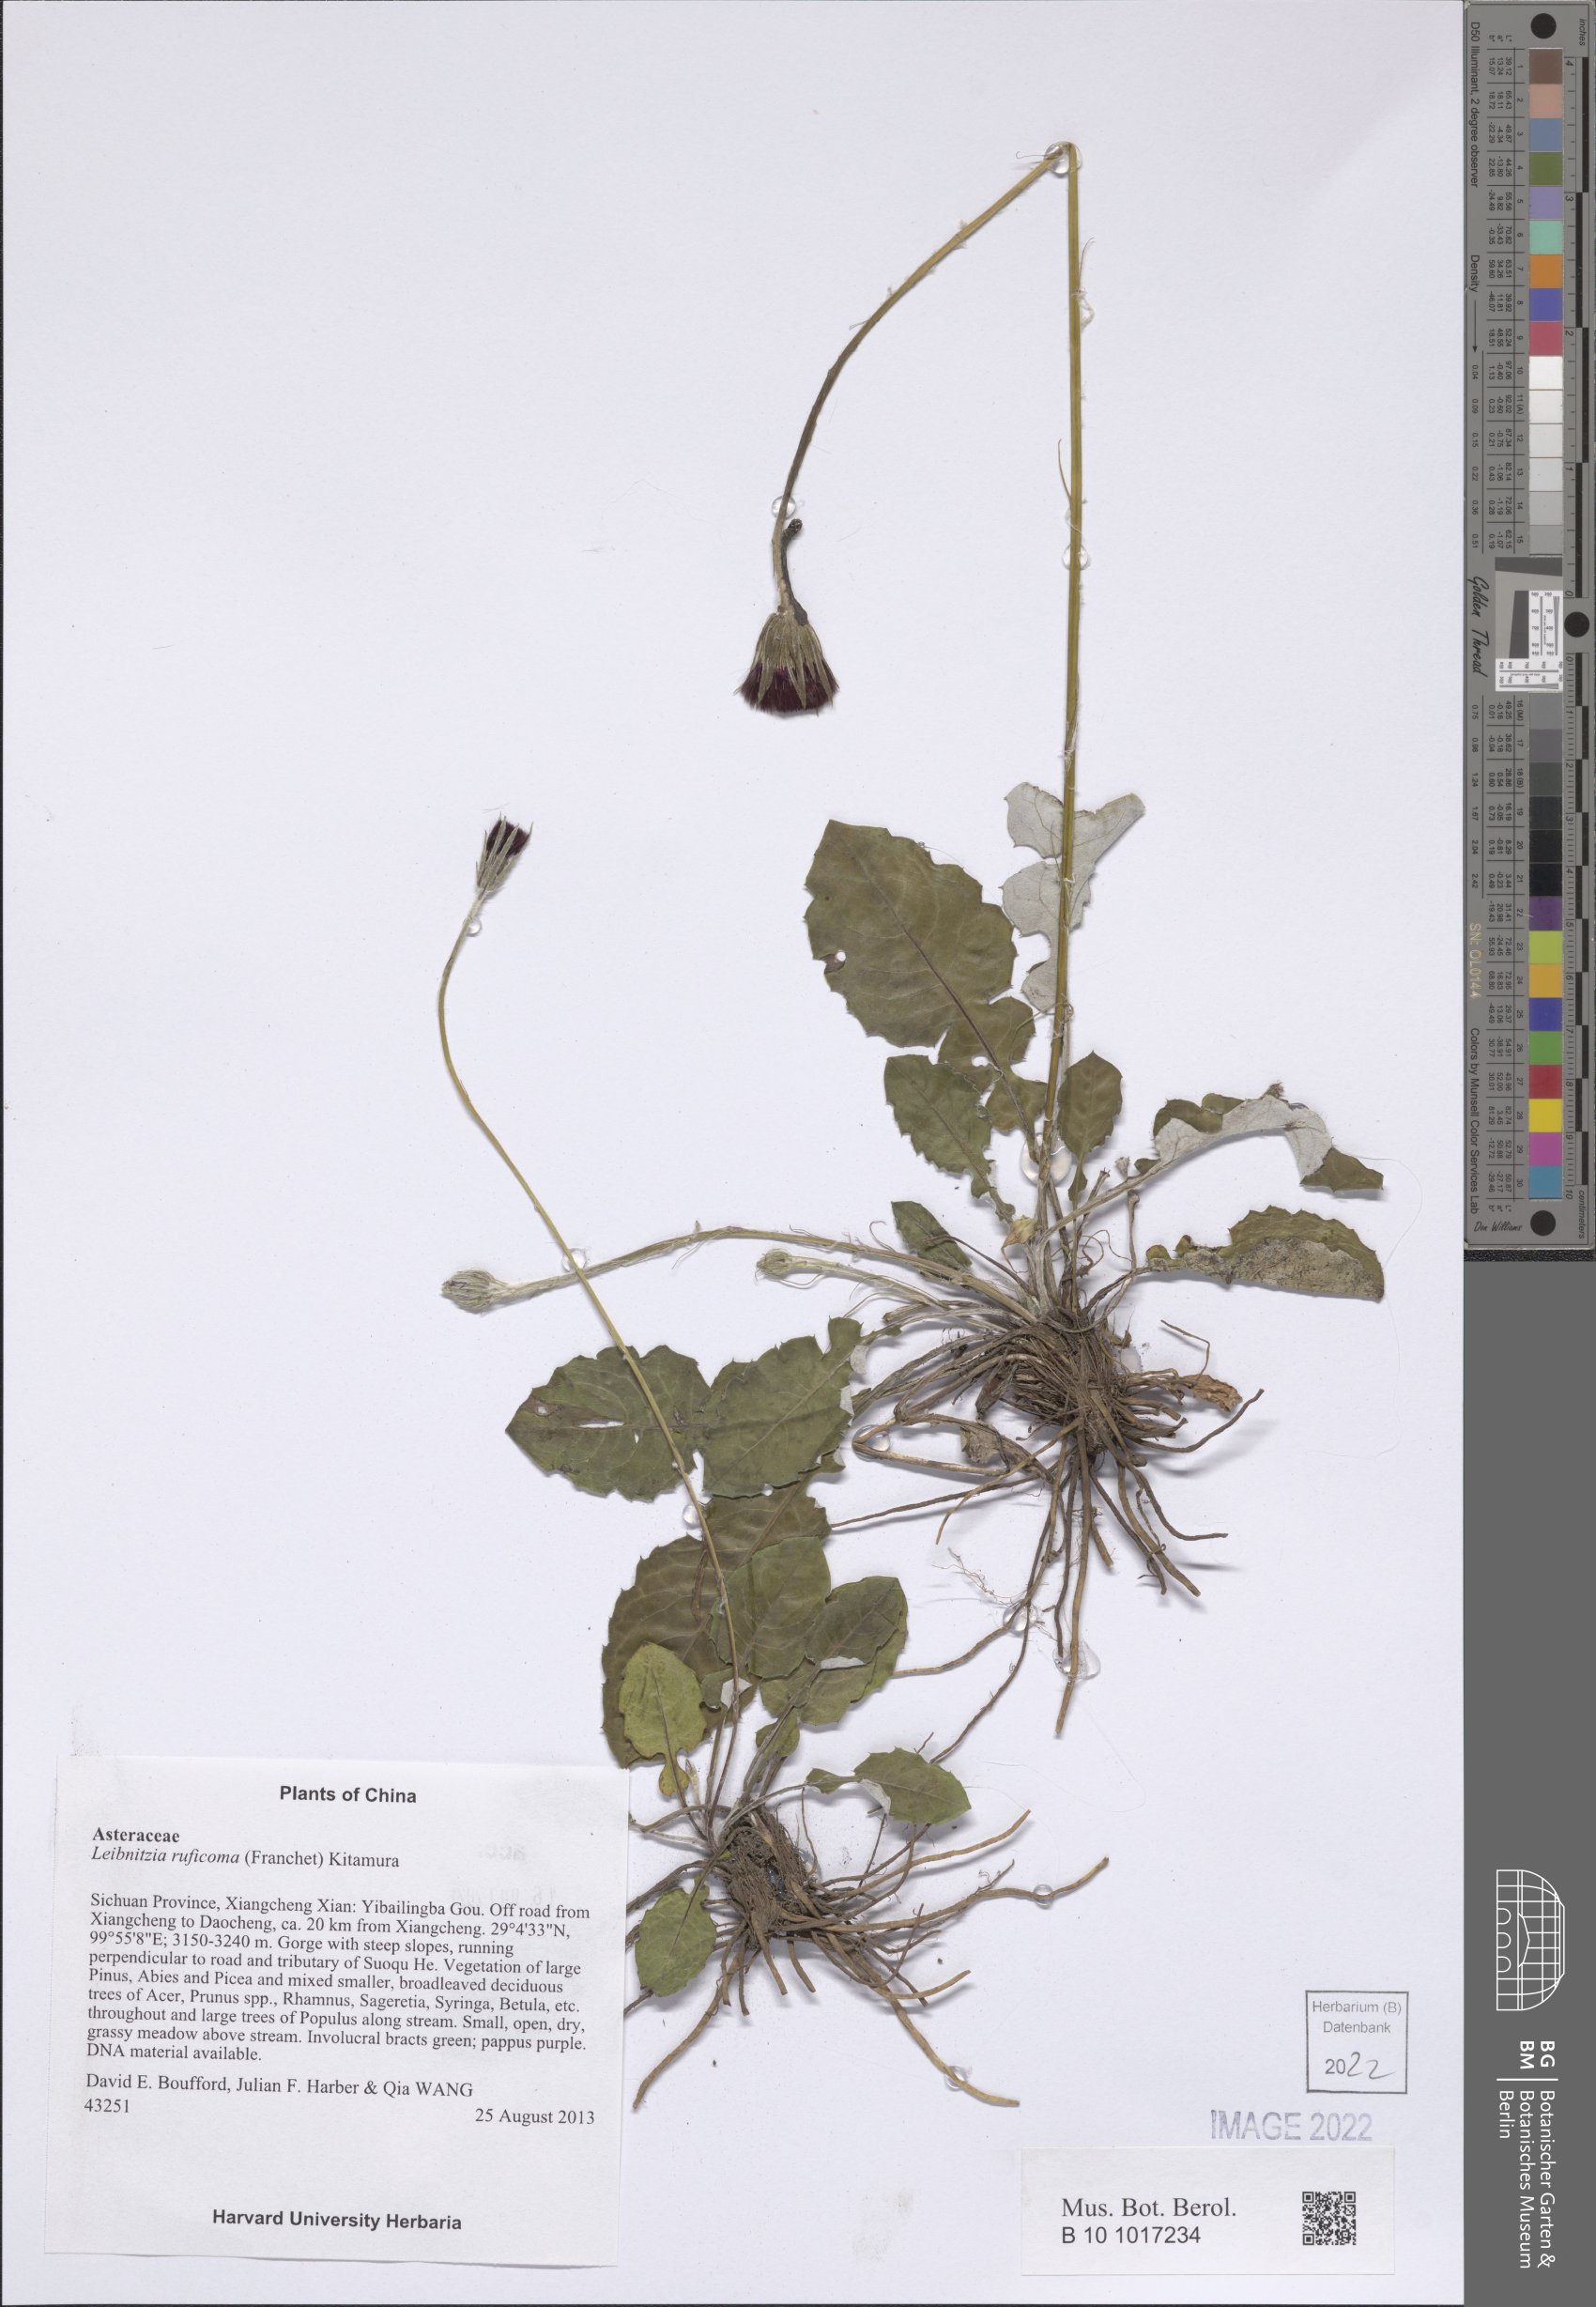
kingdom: Plantae
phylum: Tracheophyta
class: Magnoliopsida
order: Asterales
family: Asteraceae
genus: Leibnitzia
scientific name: Leibnitzia ruficoma
